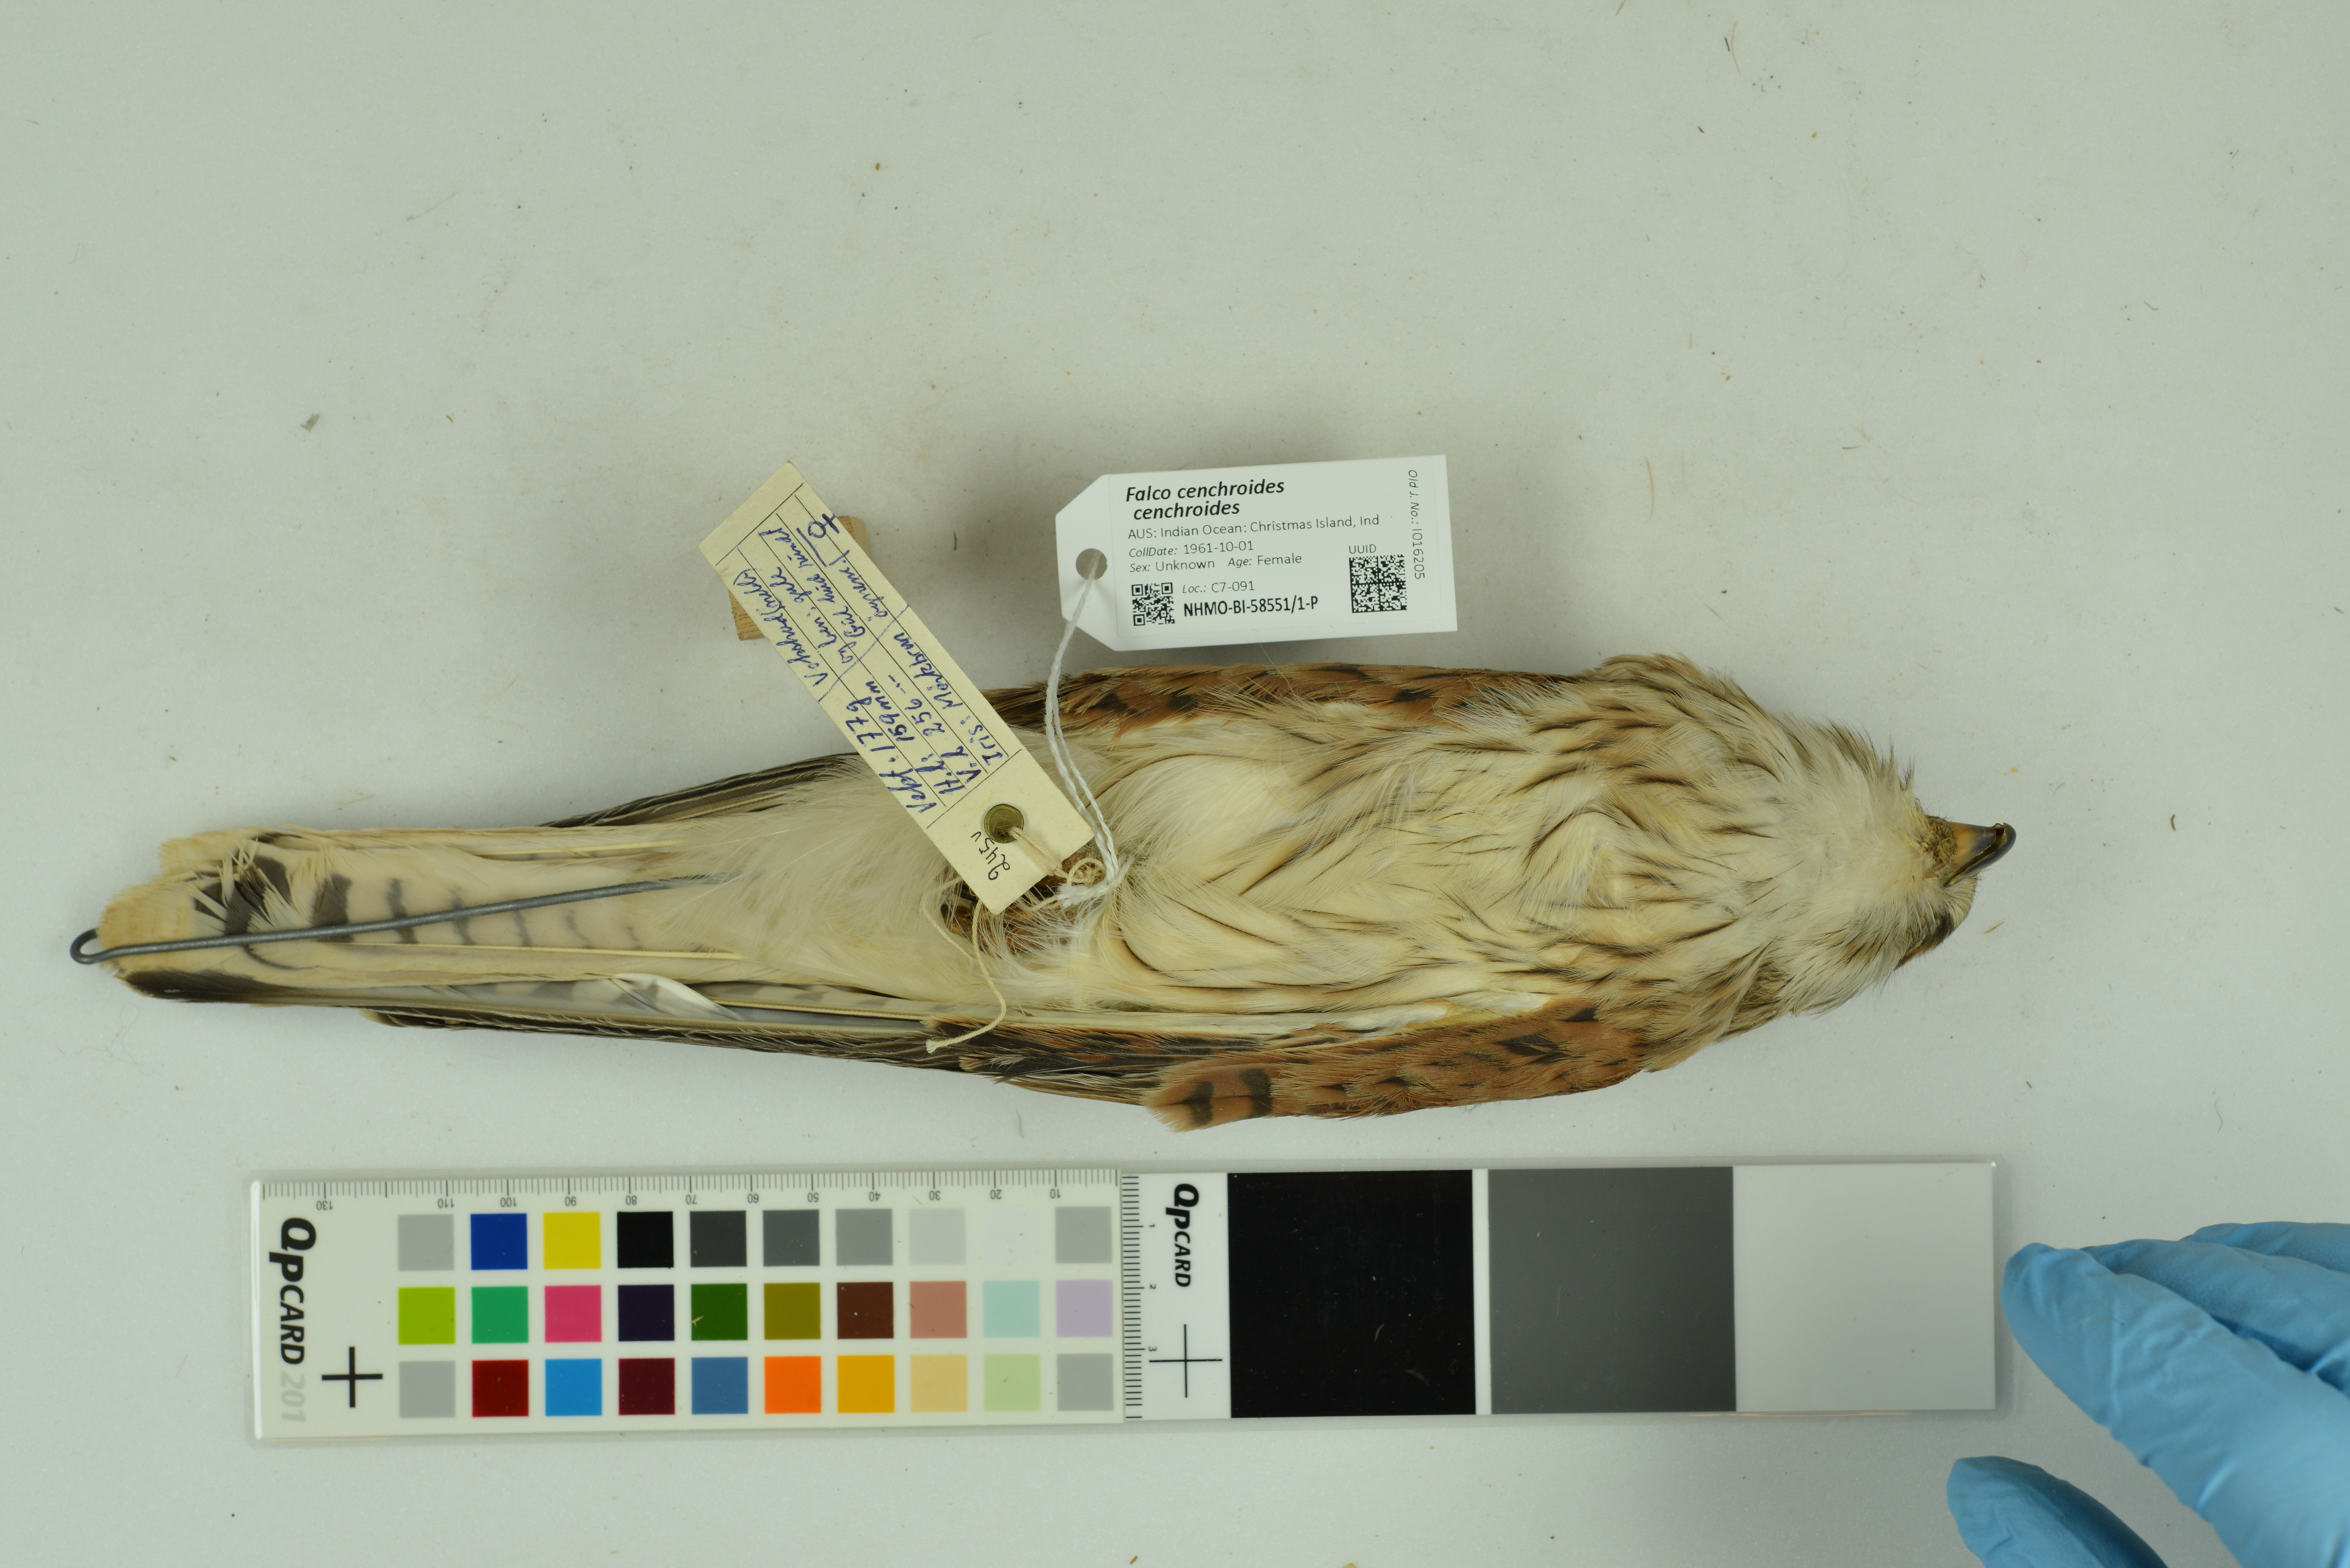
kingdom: Animalia
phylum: Chordata
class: Aves
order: Falconiformes
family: Falconidae
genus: Falco
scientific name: Falco cenchroides
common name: Nankeen kestrel
